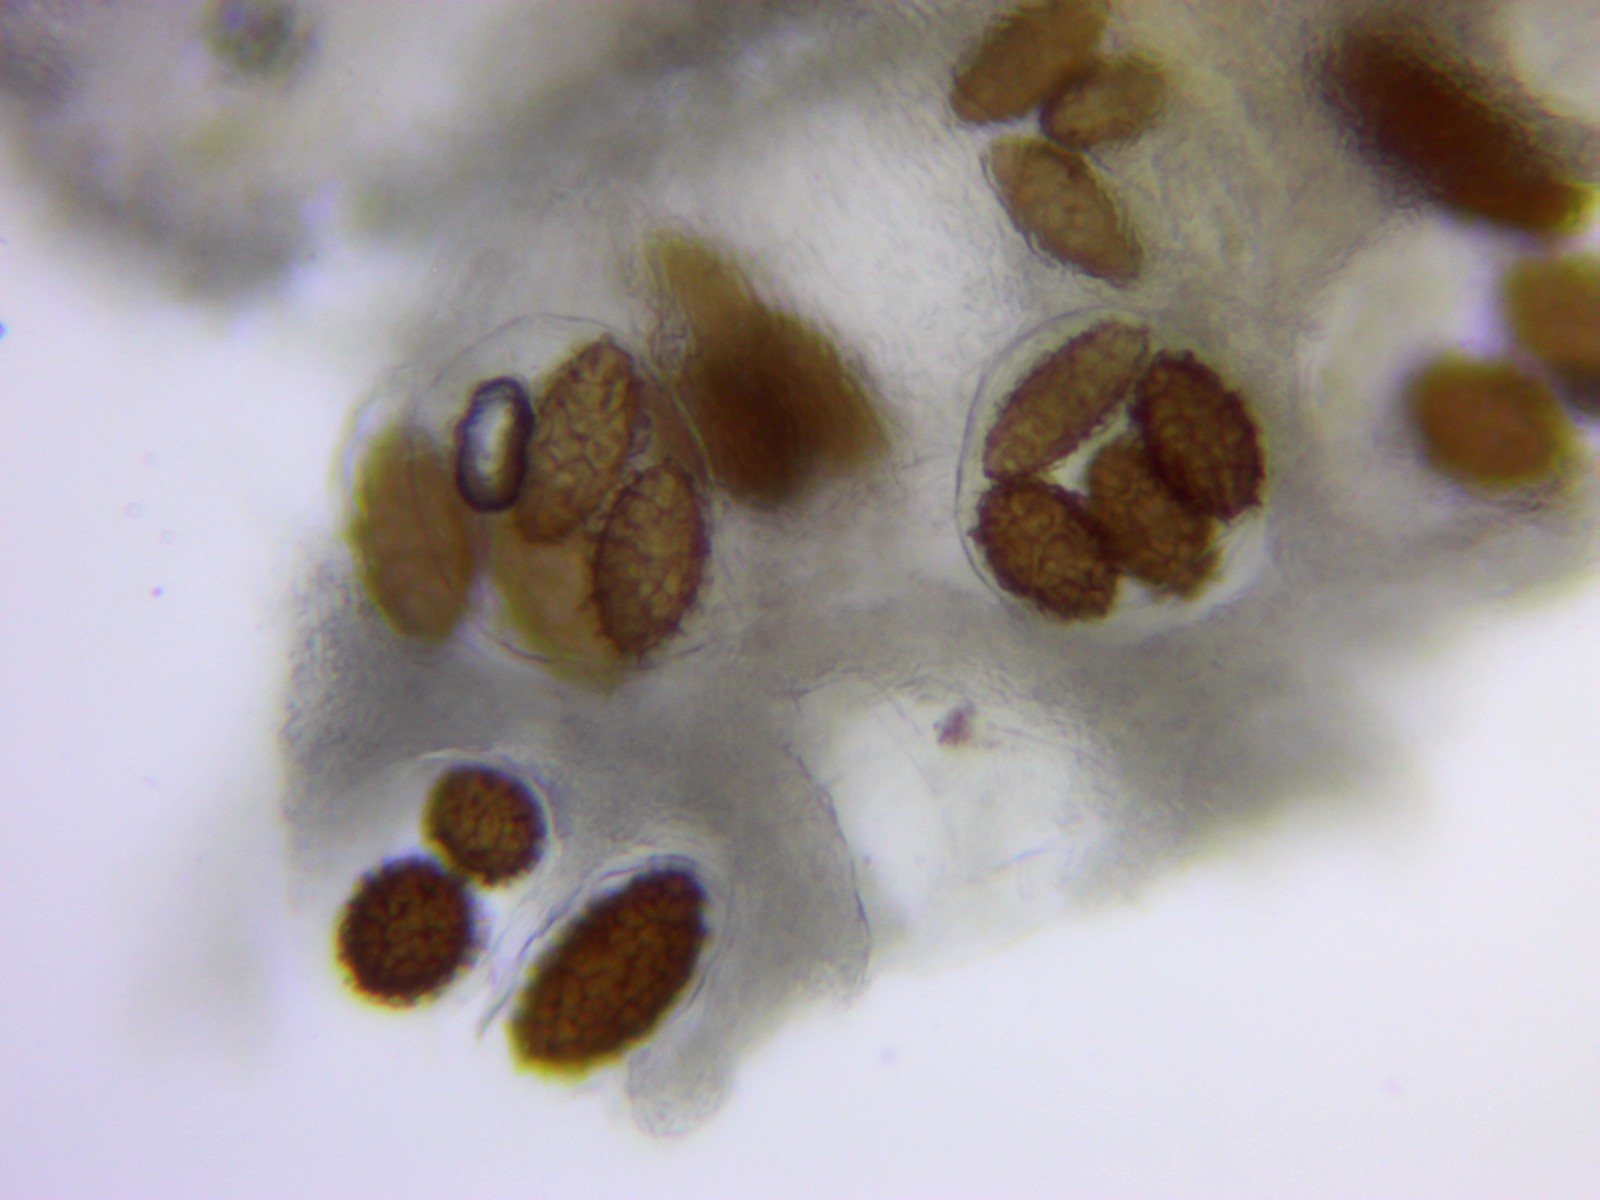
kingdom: Fungi
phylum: Ascomycota
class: Pezizomycetes
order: Pezizales
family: Tuberaceae
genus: Tuber
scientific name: Tuber macrosporum
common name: storsporet trøffel
